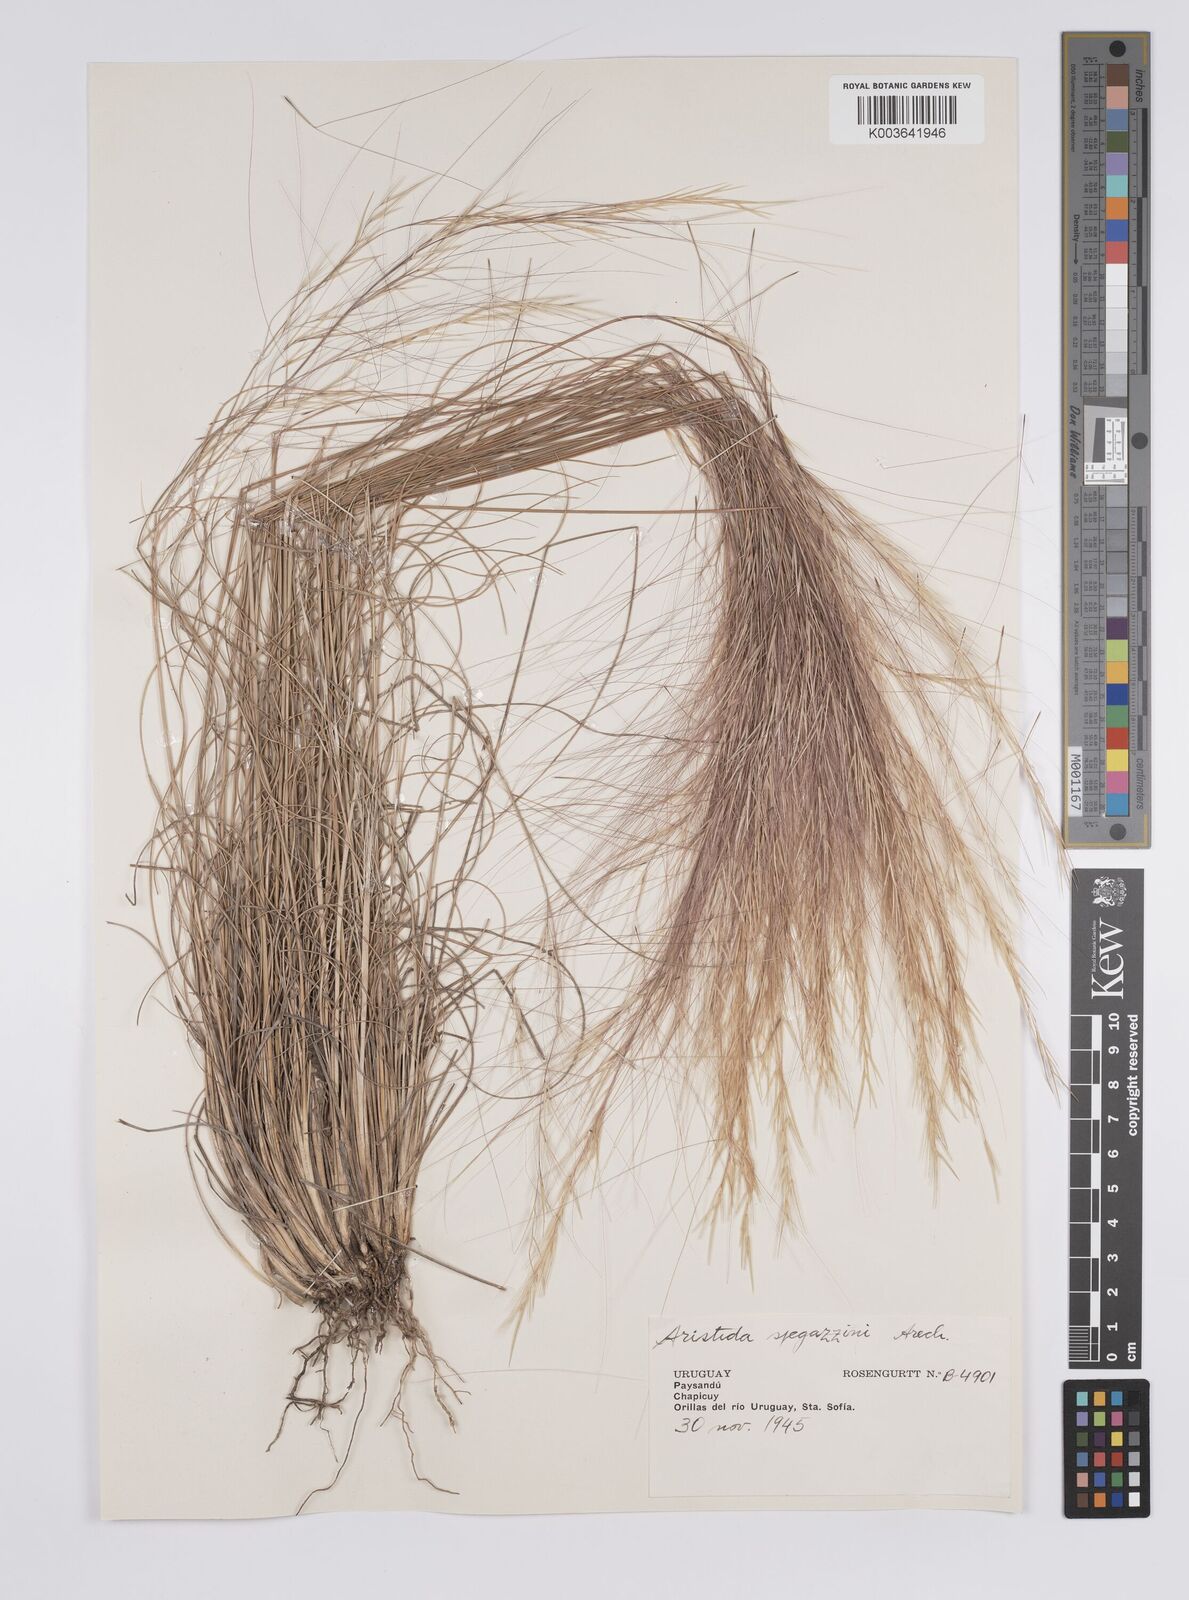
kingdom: Plantae
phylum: Tracheophyta
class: Liliopsida
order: Poales
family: Poaceae
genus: Aristida
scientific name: Aristida spegazzinii
